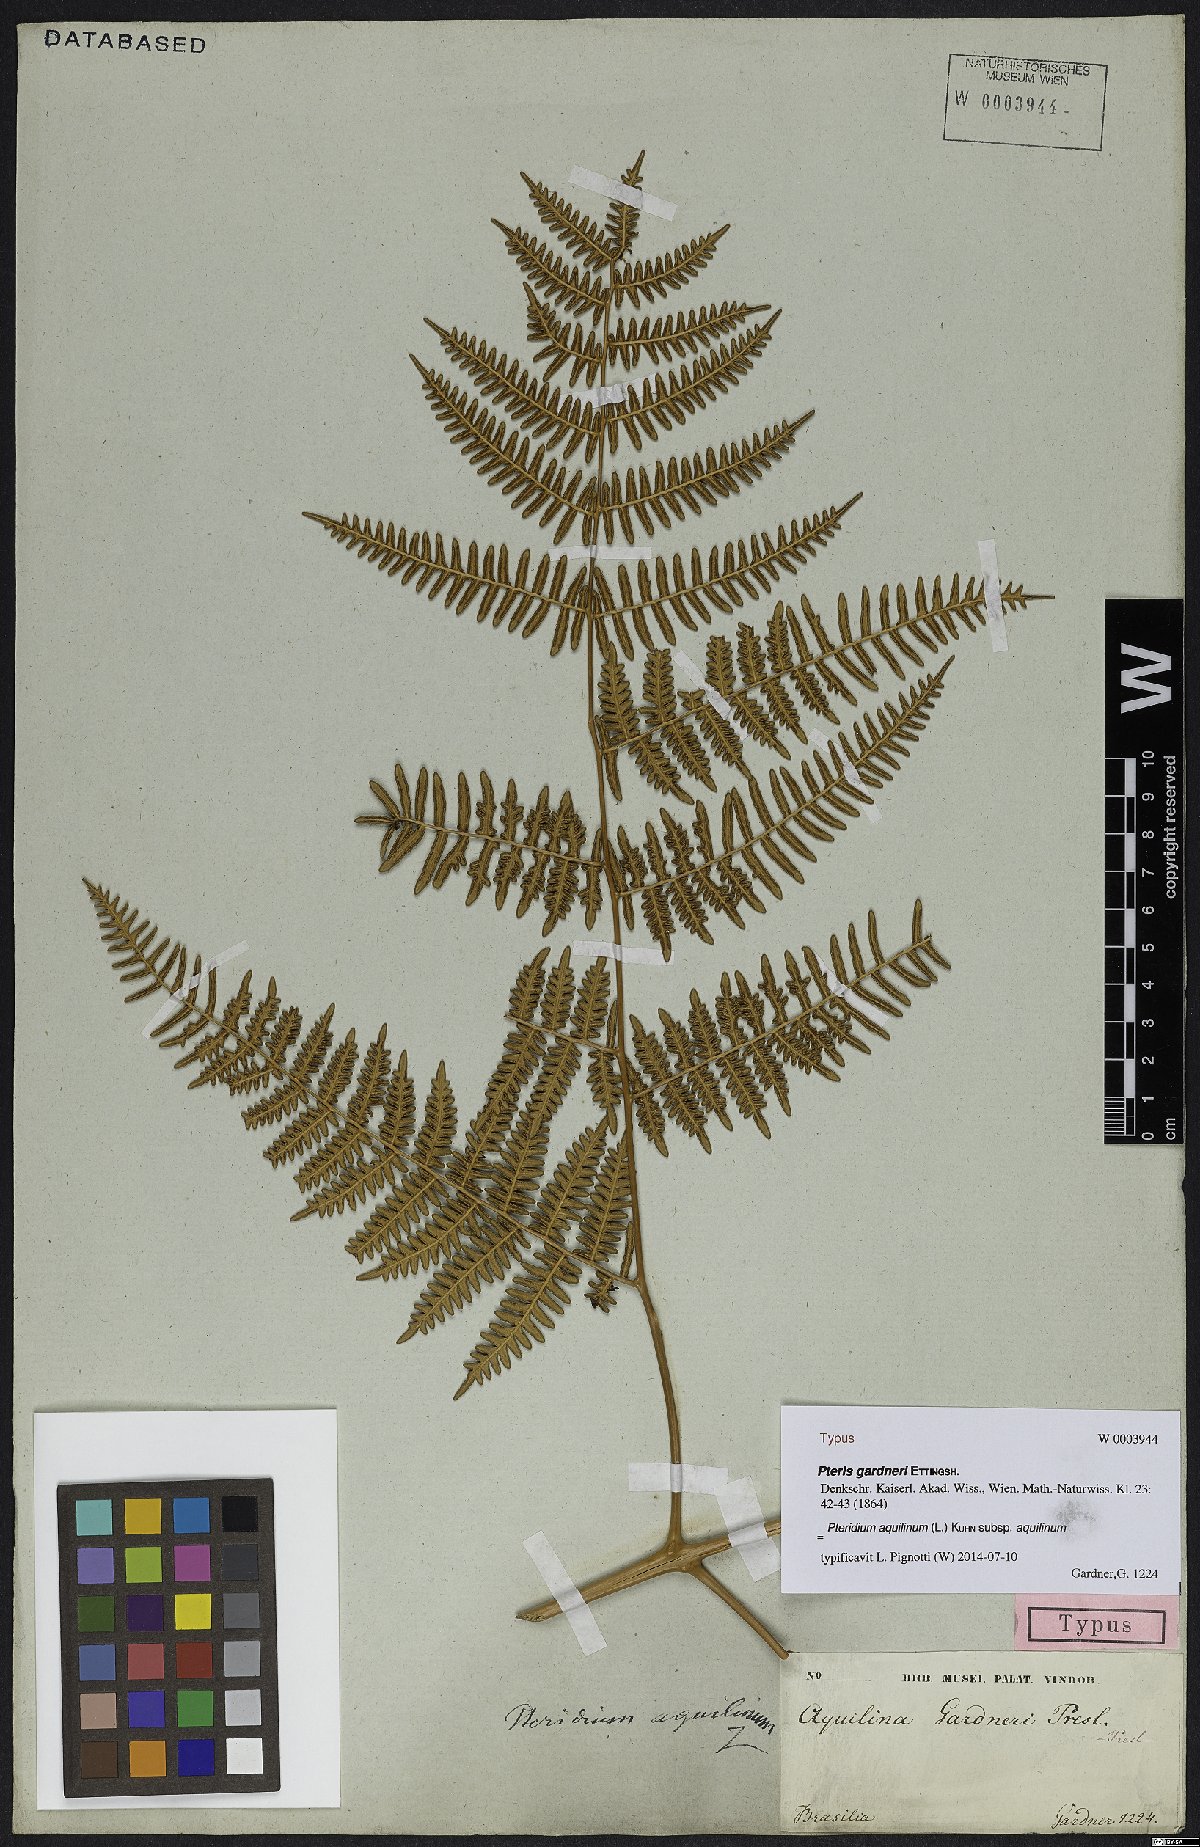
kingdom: Plantae
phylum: Tracheophyta
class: Polypodiopsida
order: Polypodiales
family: Dennstaedtiaceae
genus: Pteridium
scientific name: Pteridium aquilinum
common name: Bracken
